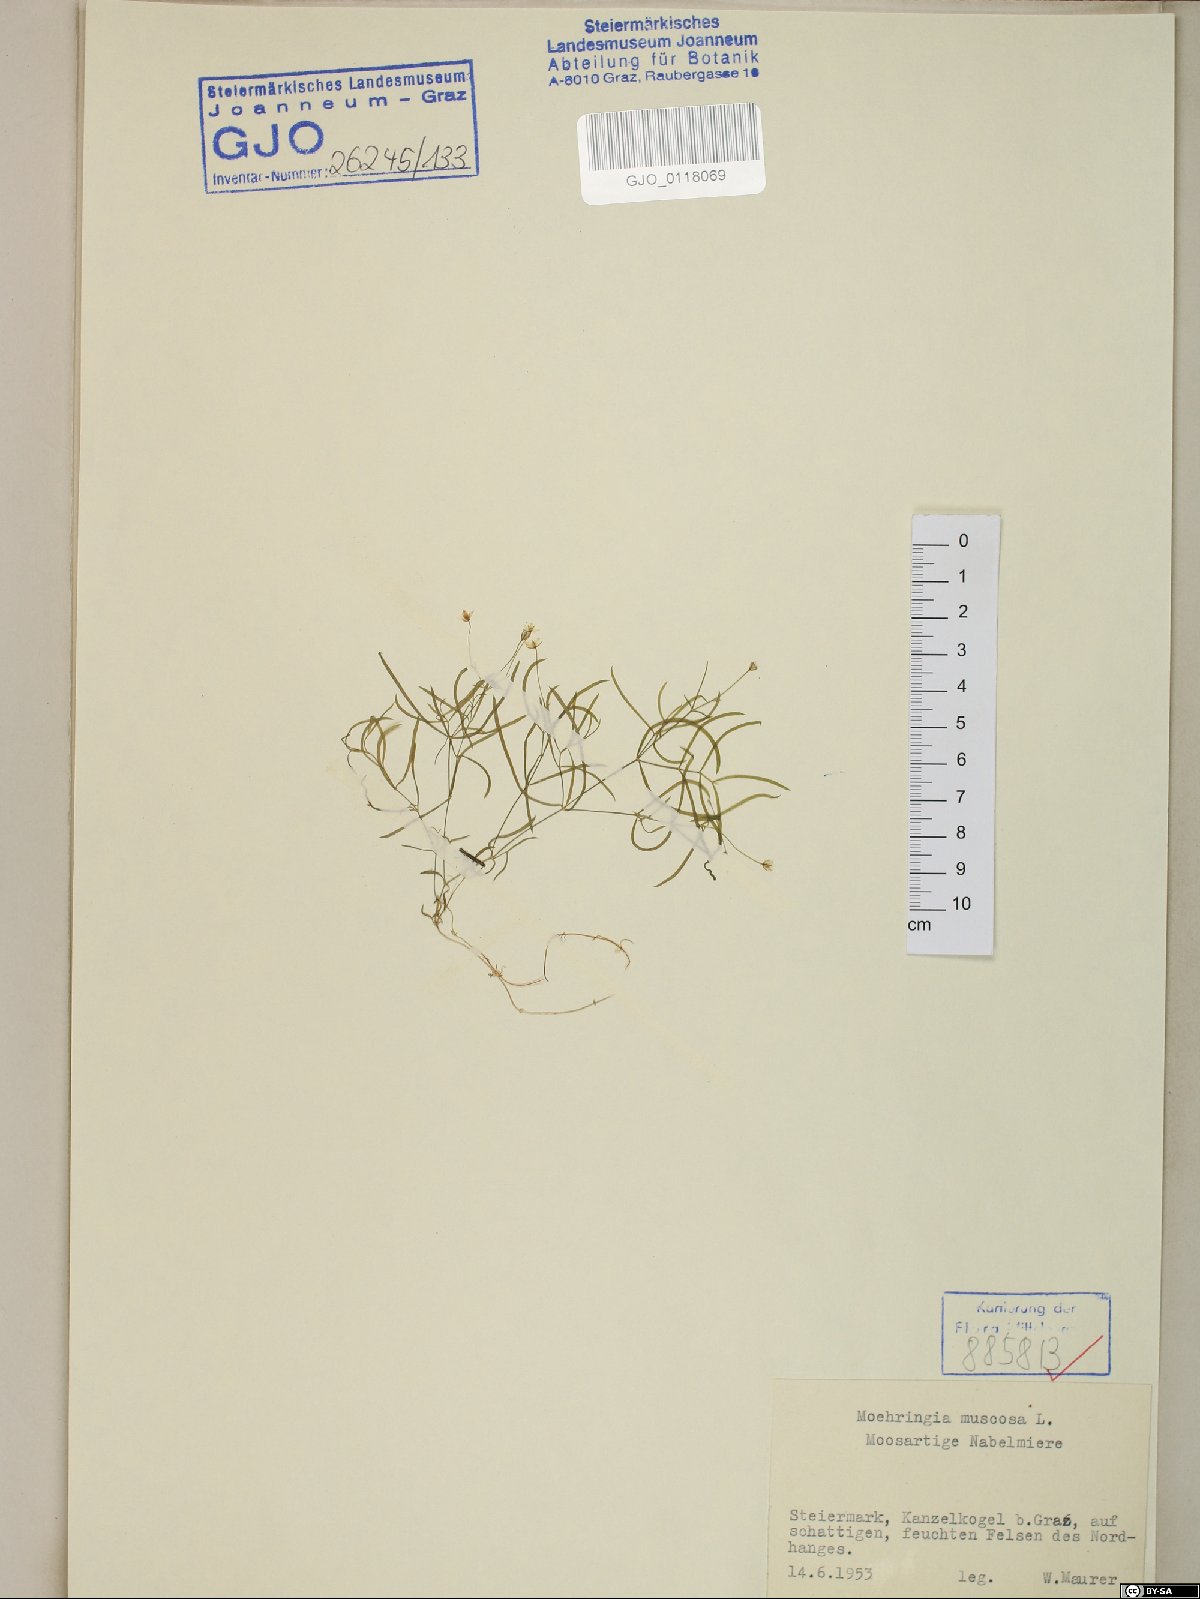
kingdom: Plantae
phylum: Tracheophyta
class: Magnoliopsida
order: Caryophyllales
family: Caryophyllaceae
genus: Moehringia
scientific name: Moehringia muscosa
